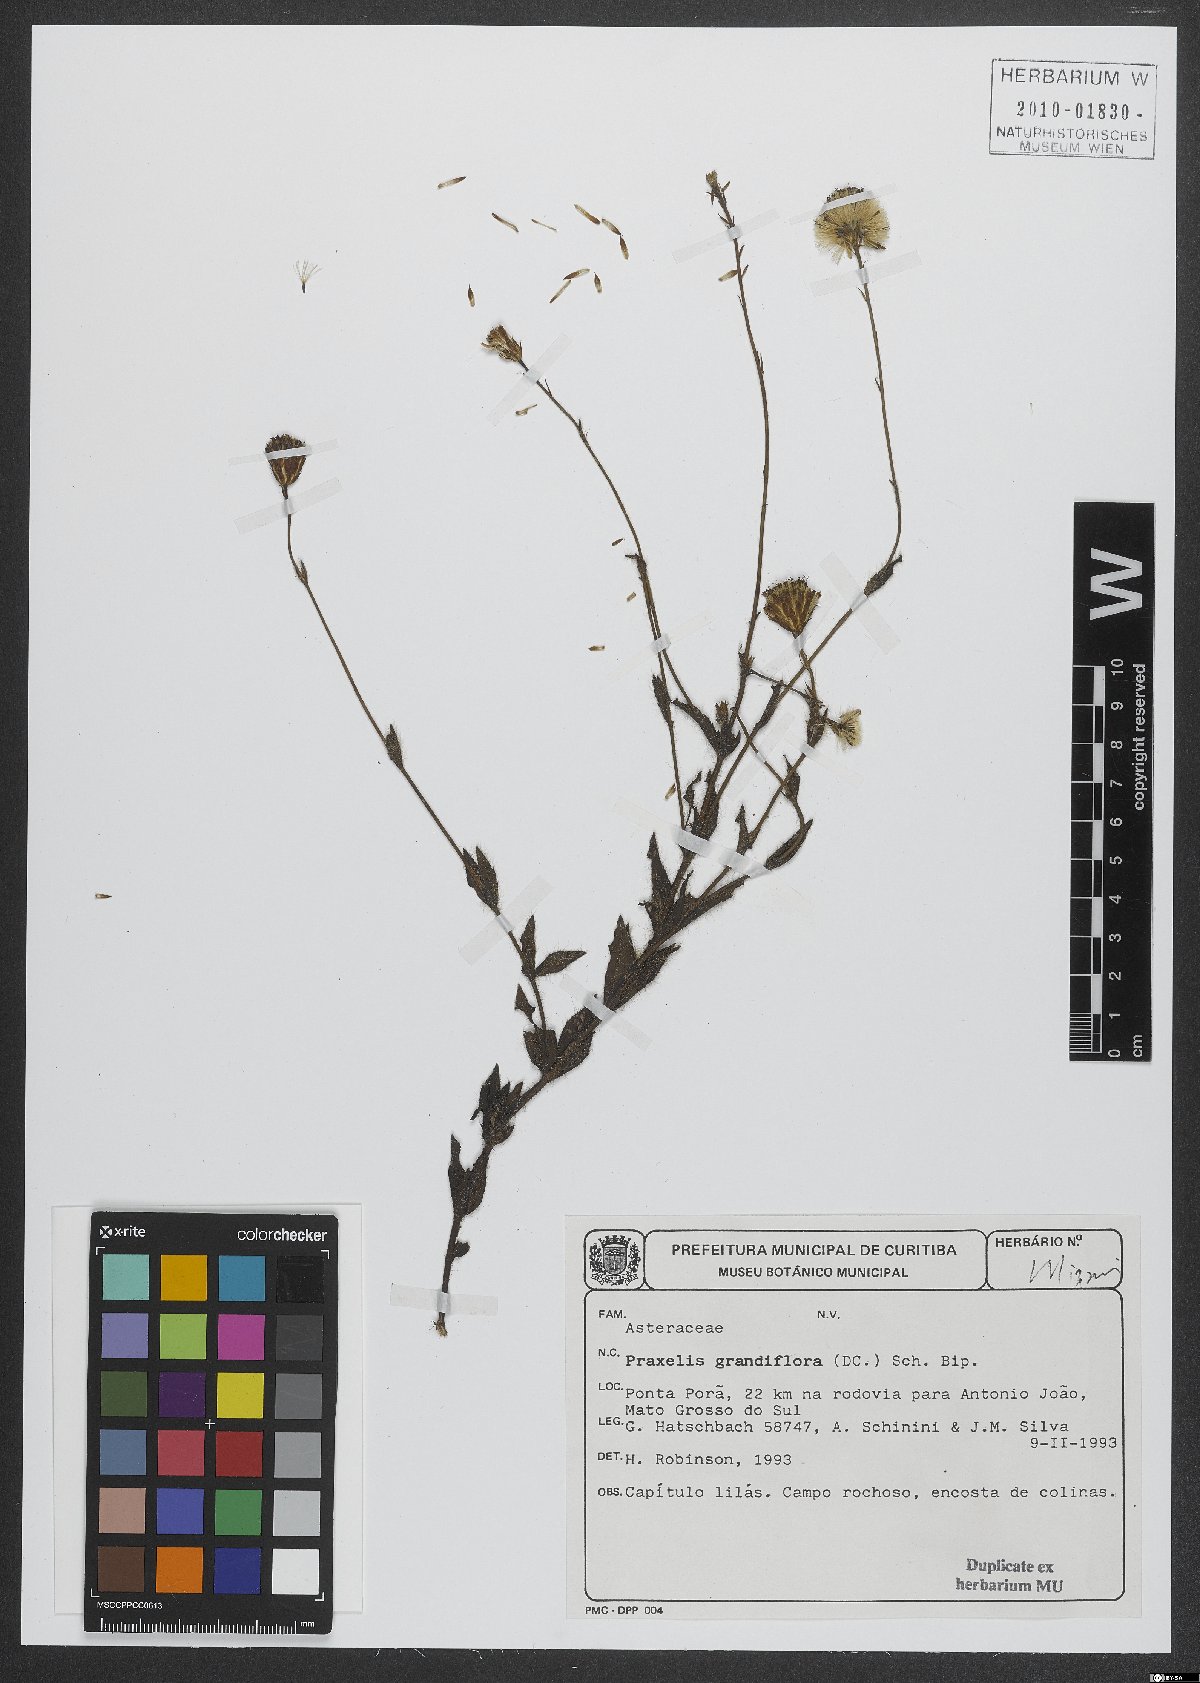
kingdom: Plantae
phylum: Tracheophyta
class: Magnoliopsida
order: Asterales
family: Asteraceae
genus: Praxelis
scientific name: Praxelis grandiflora
